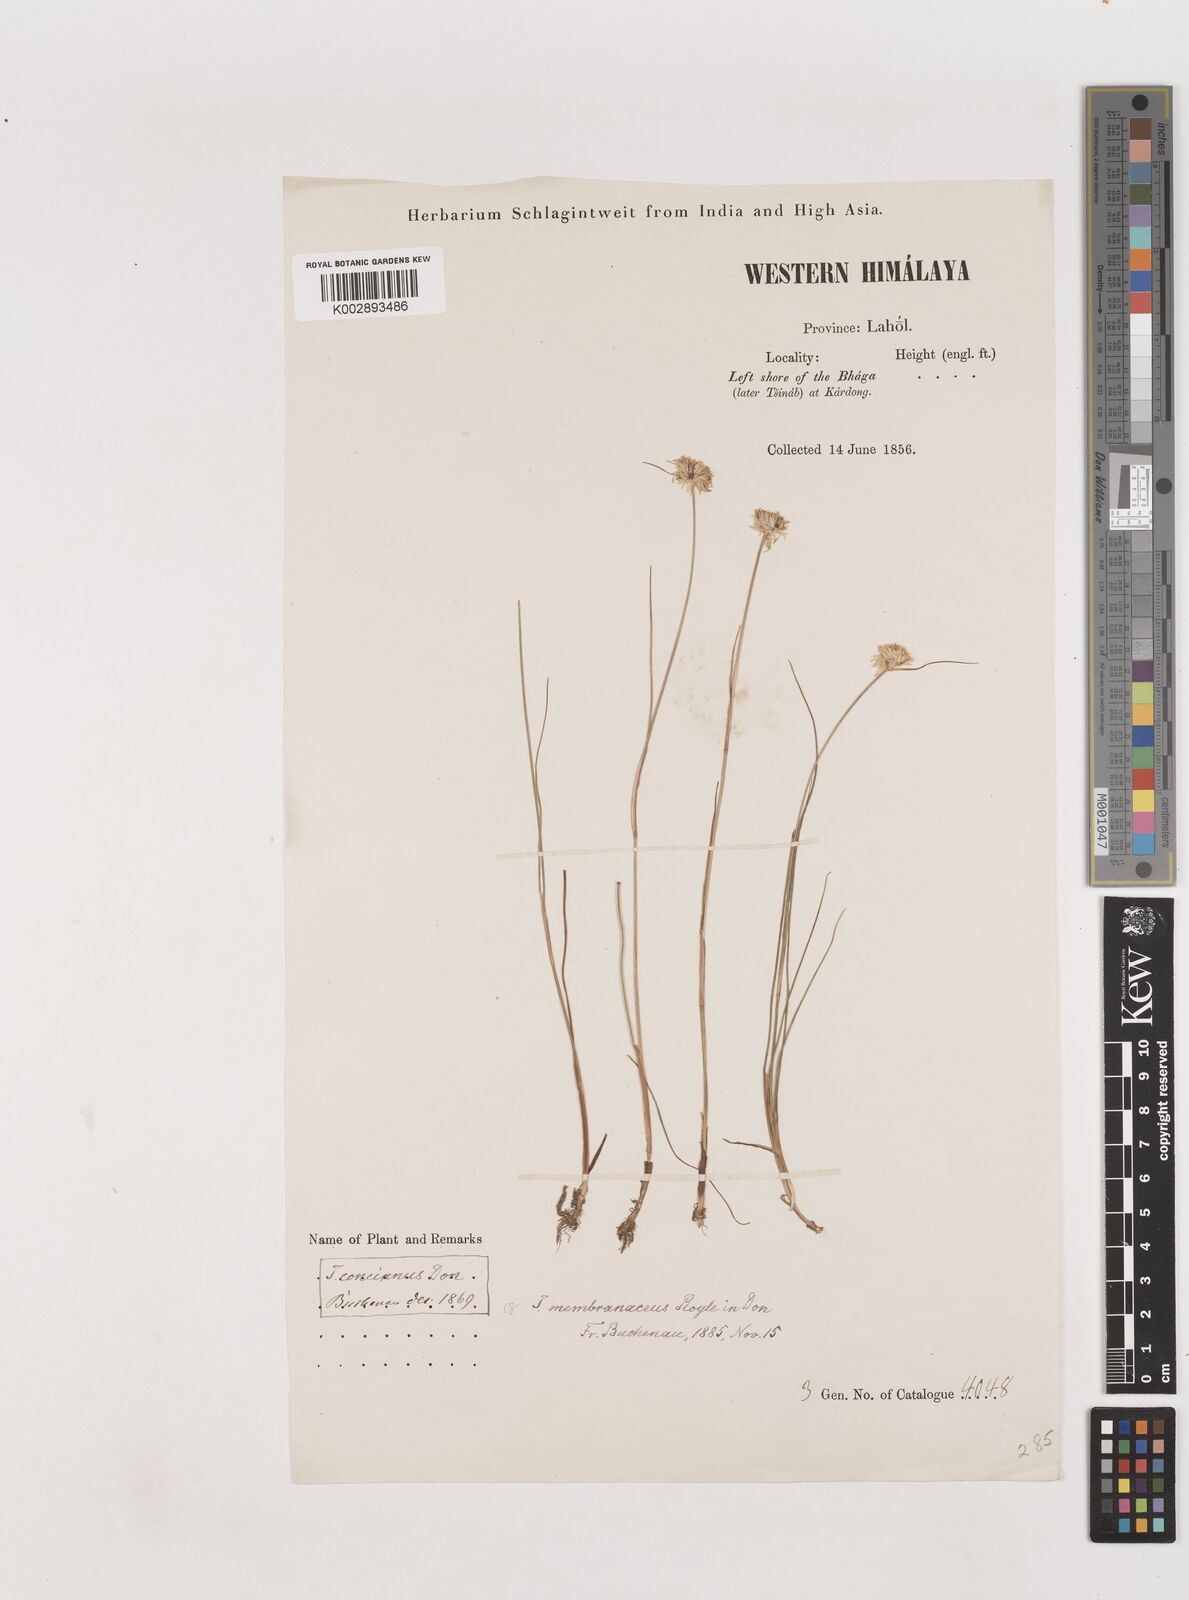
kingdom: Plantae
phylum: Tracheophyta
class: Liliopsida
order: Poales
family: Juncaceae
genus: Juncus
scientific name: Juncus benghalensis
